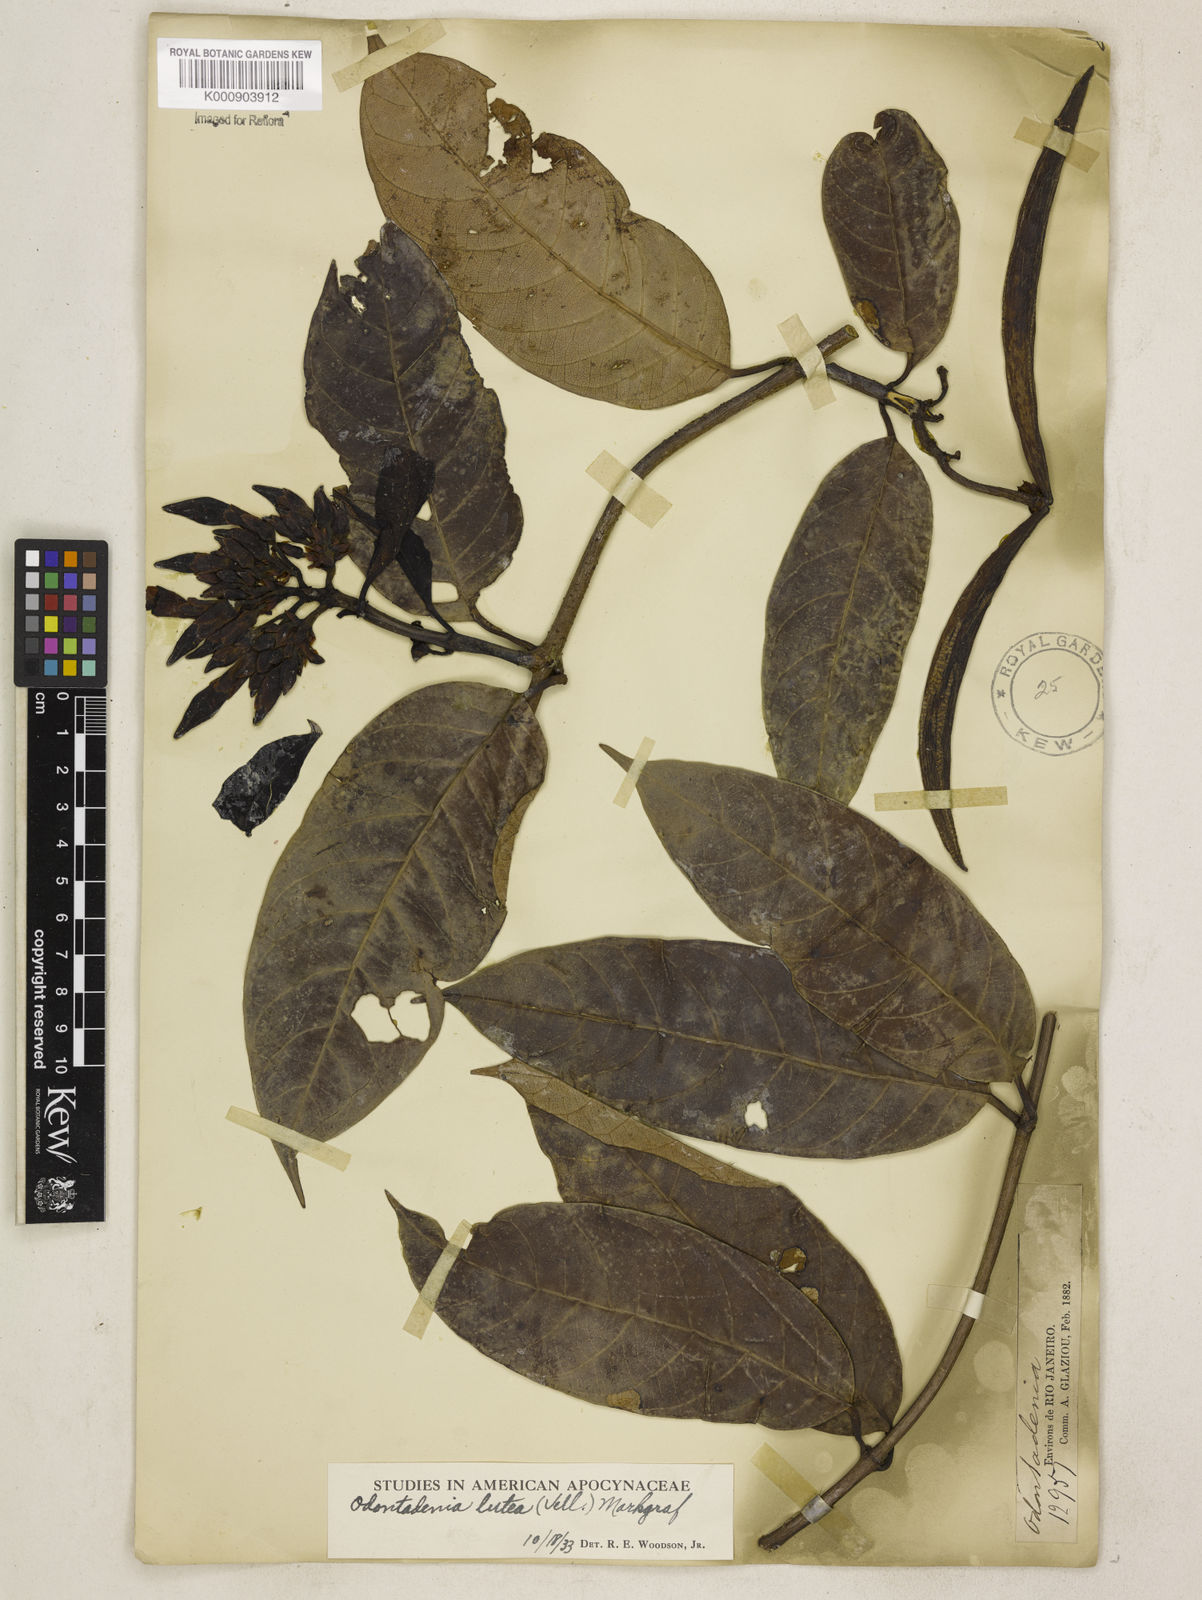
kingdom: Plantae
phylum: Tracheophyta
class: Magnoliopsida
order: Gentianales
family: Apocynaceae
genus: Odontadenia
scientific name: Odontadenia lutea
